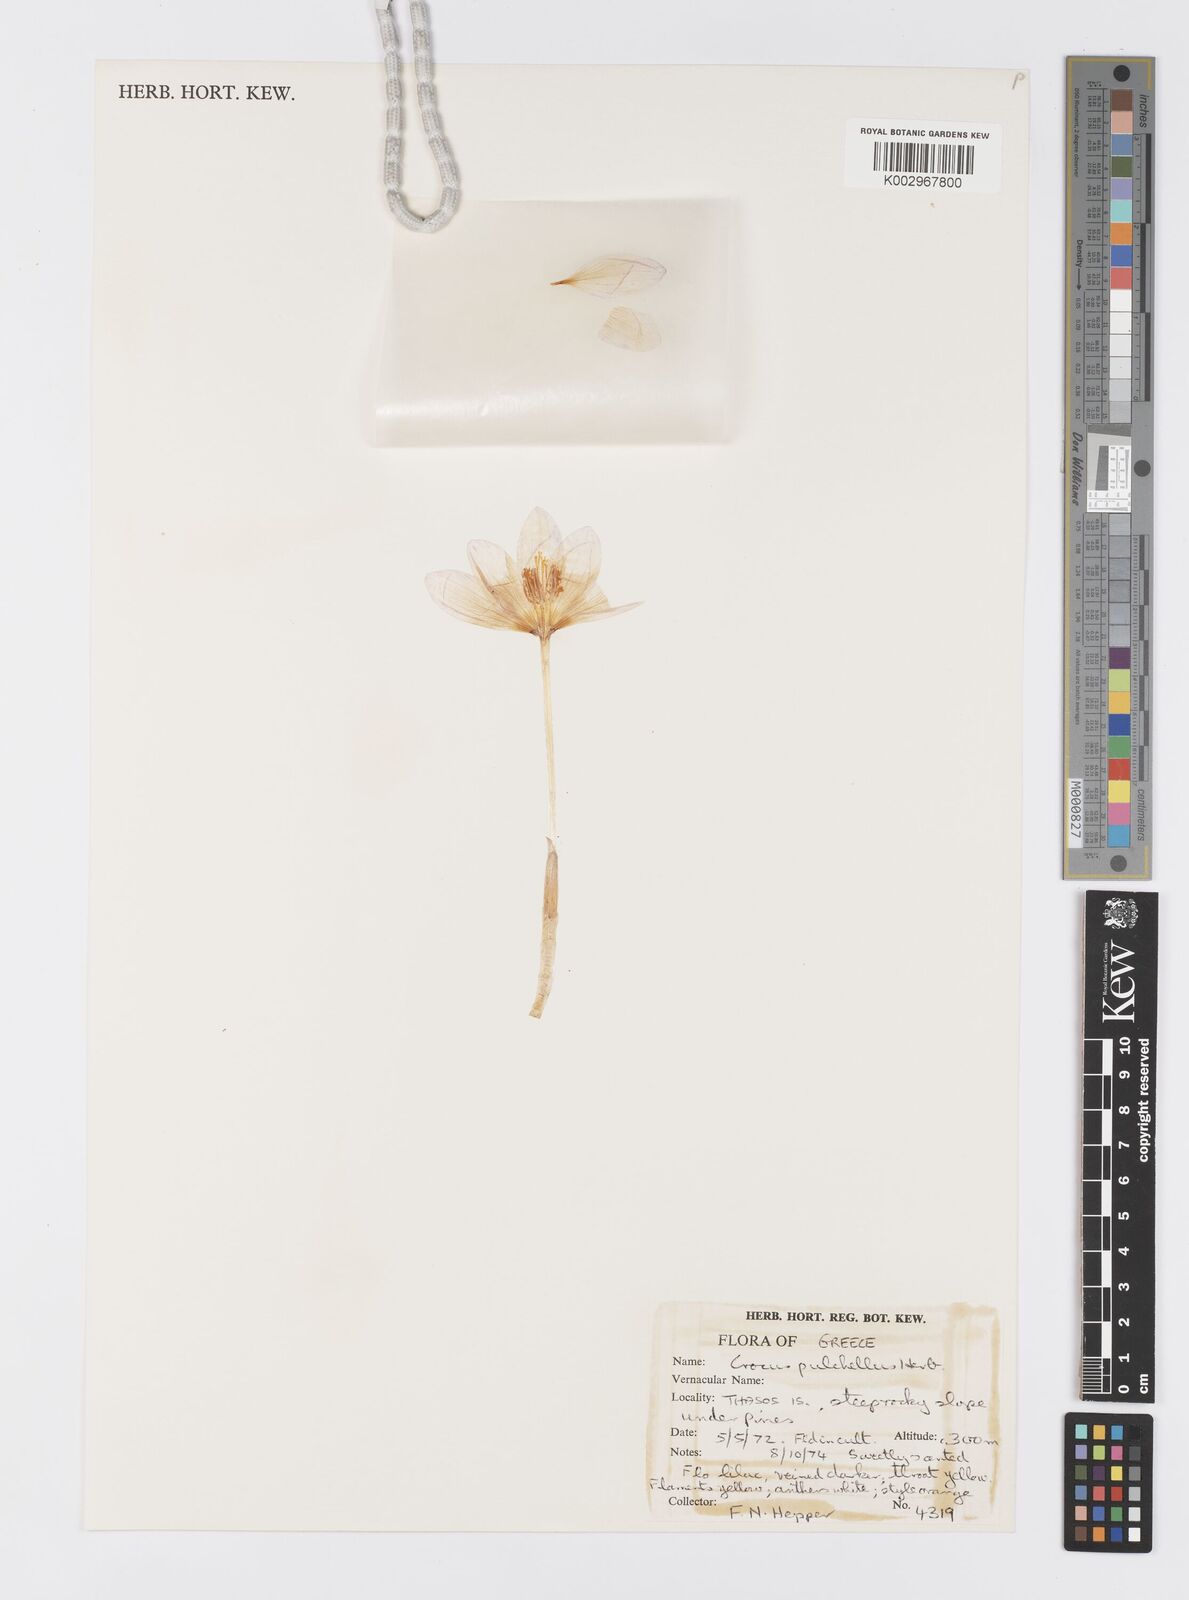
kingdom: Plantae
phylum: Tracheophyta
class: Liliopsida
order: Asparagales
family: Iridaceae
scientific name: Iridaceae
